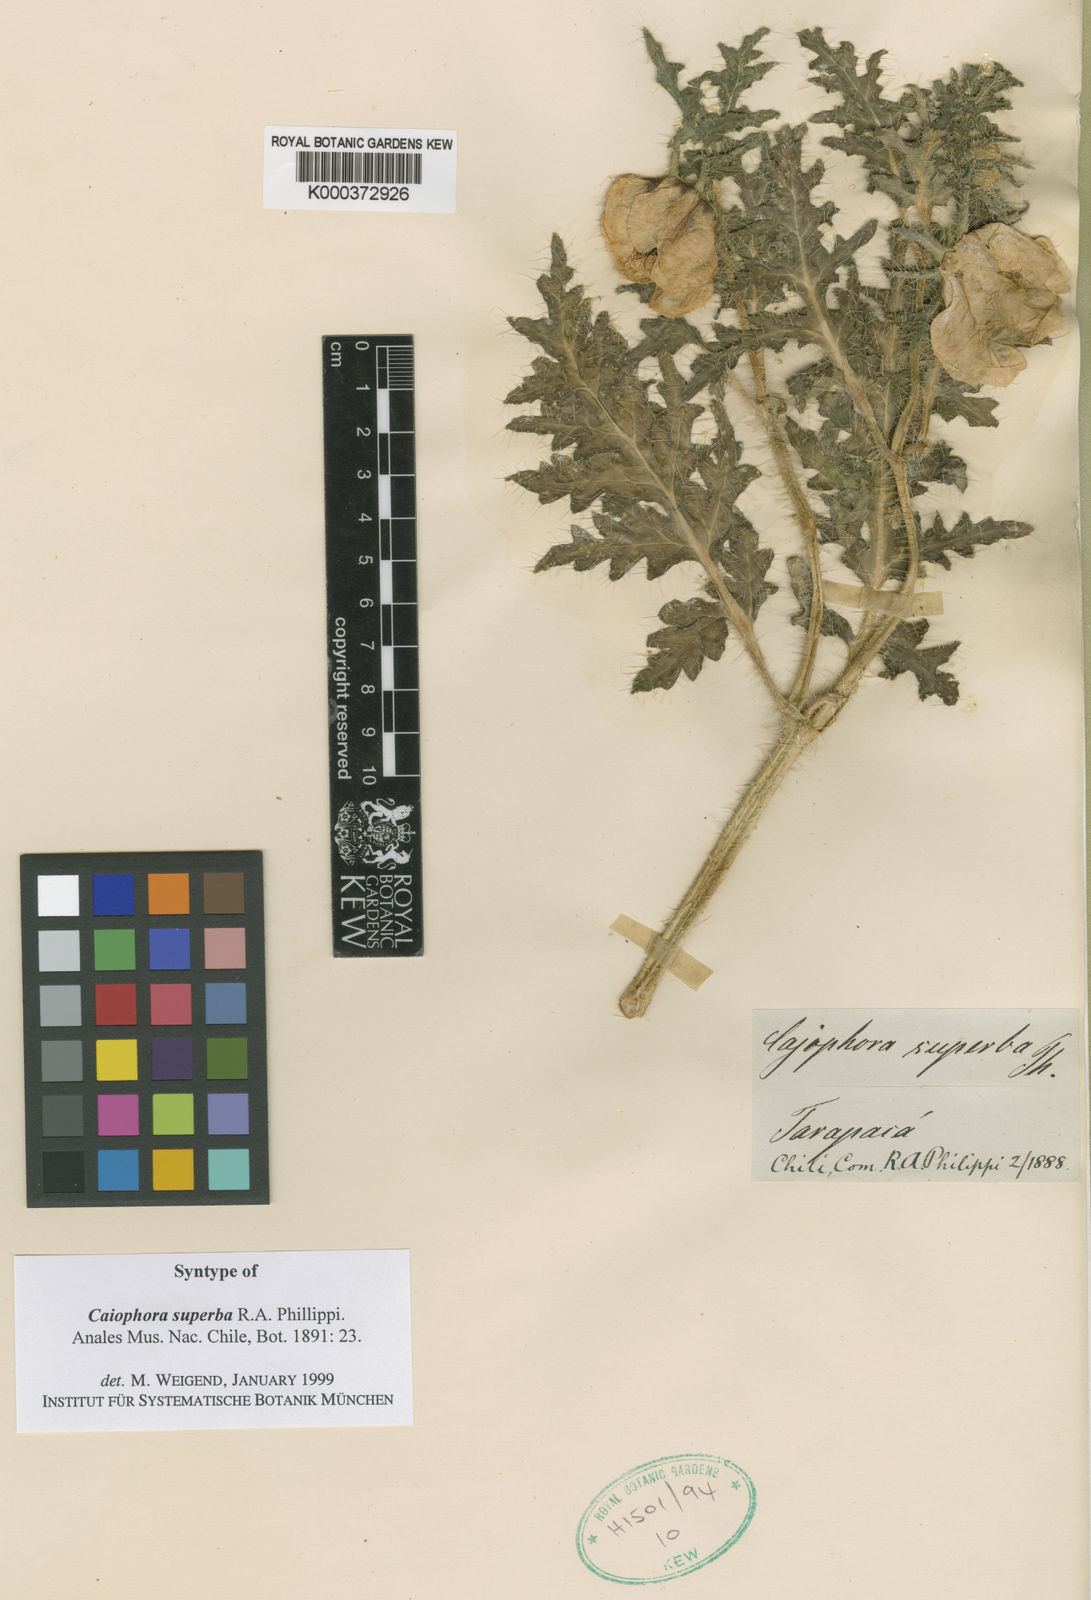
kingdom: Plantae
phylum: Tracheophyta
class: Magnoliopsida
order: Cornales
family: Loasaceae
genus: Caiophora
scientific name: Caiophora chuquitensis
